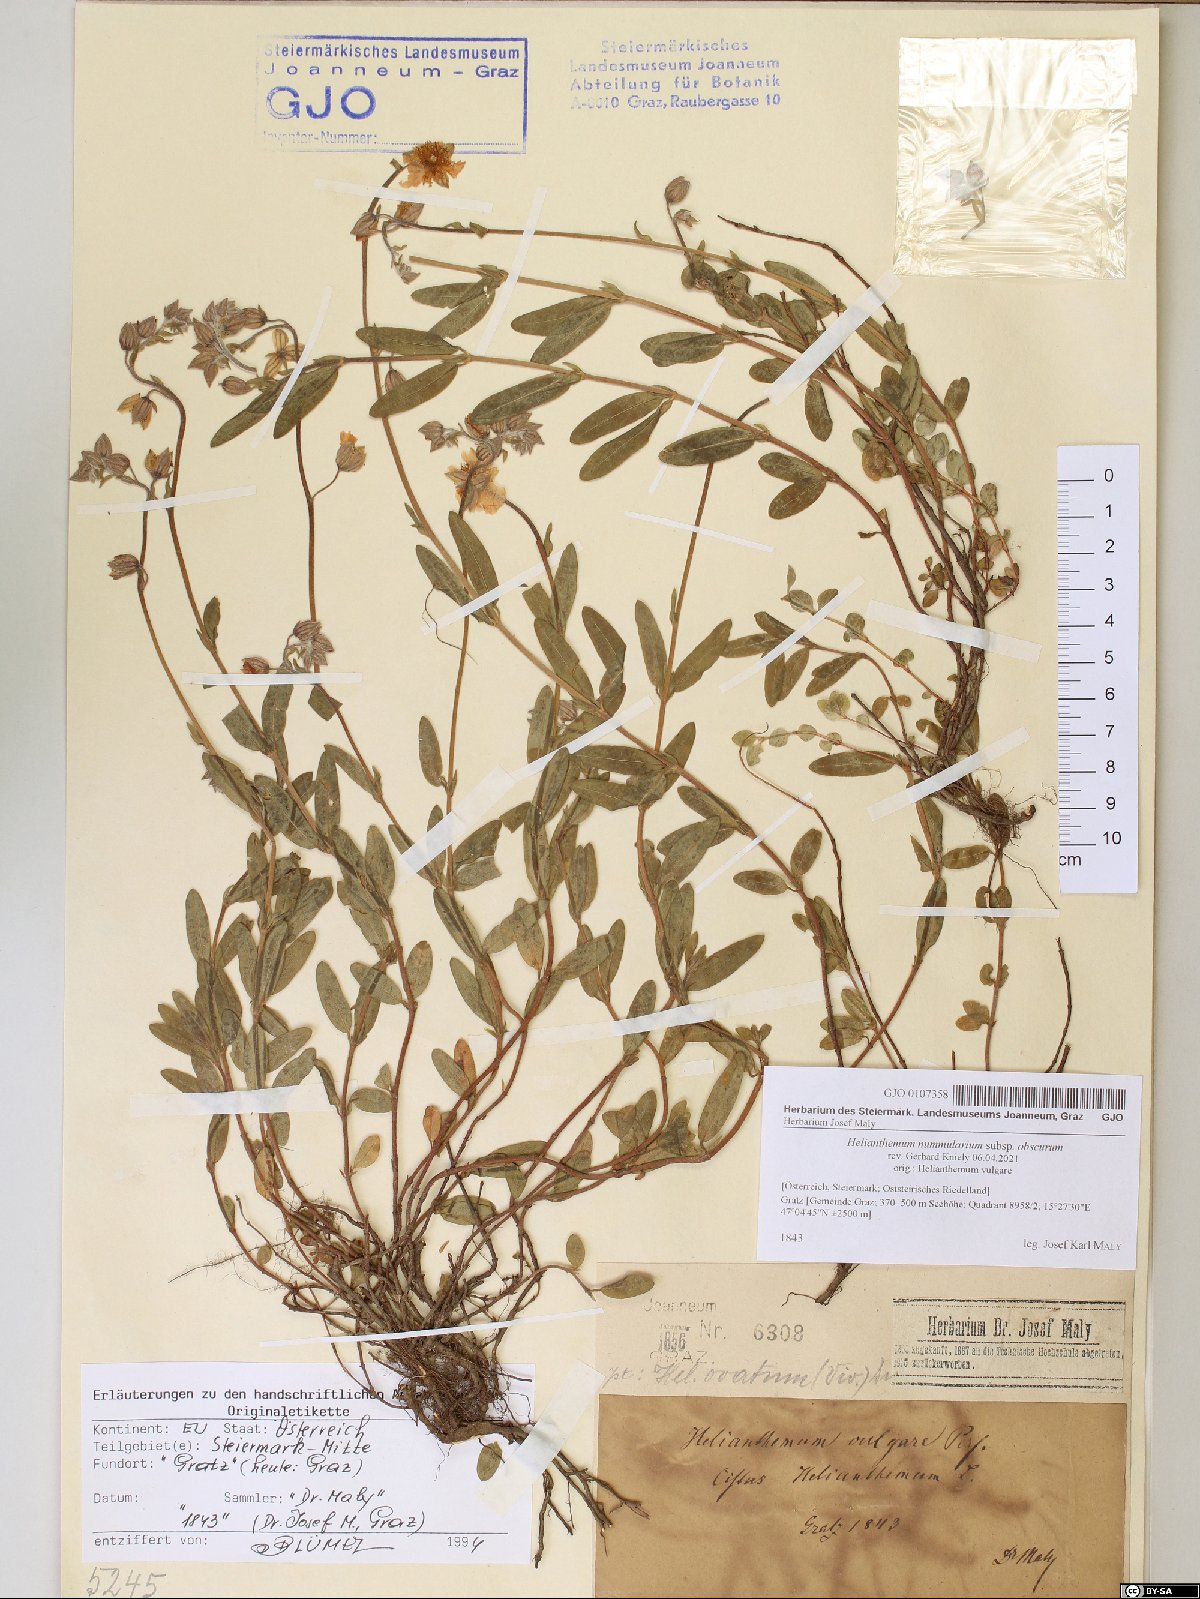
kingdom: Plantae
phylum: Tracheophyta
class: Magnoliopsida
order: Malvales
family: Cistaceae
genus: Helianthemum
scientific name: Helianthemum nummularium
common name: Common rock-rose
